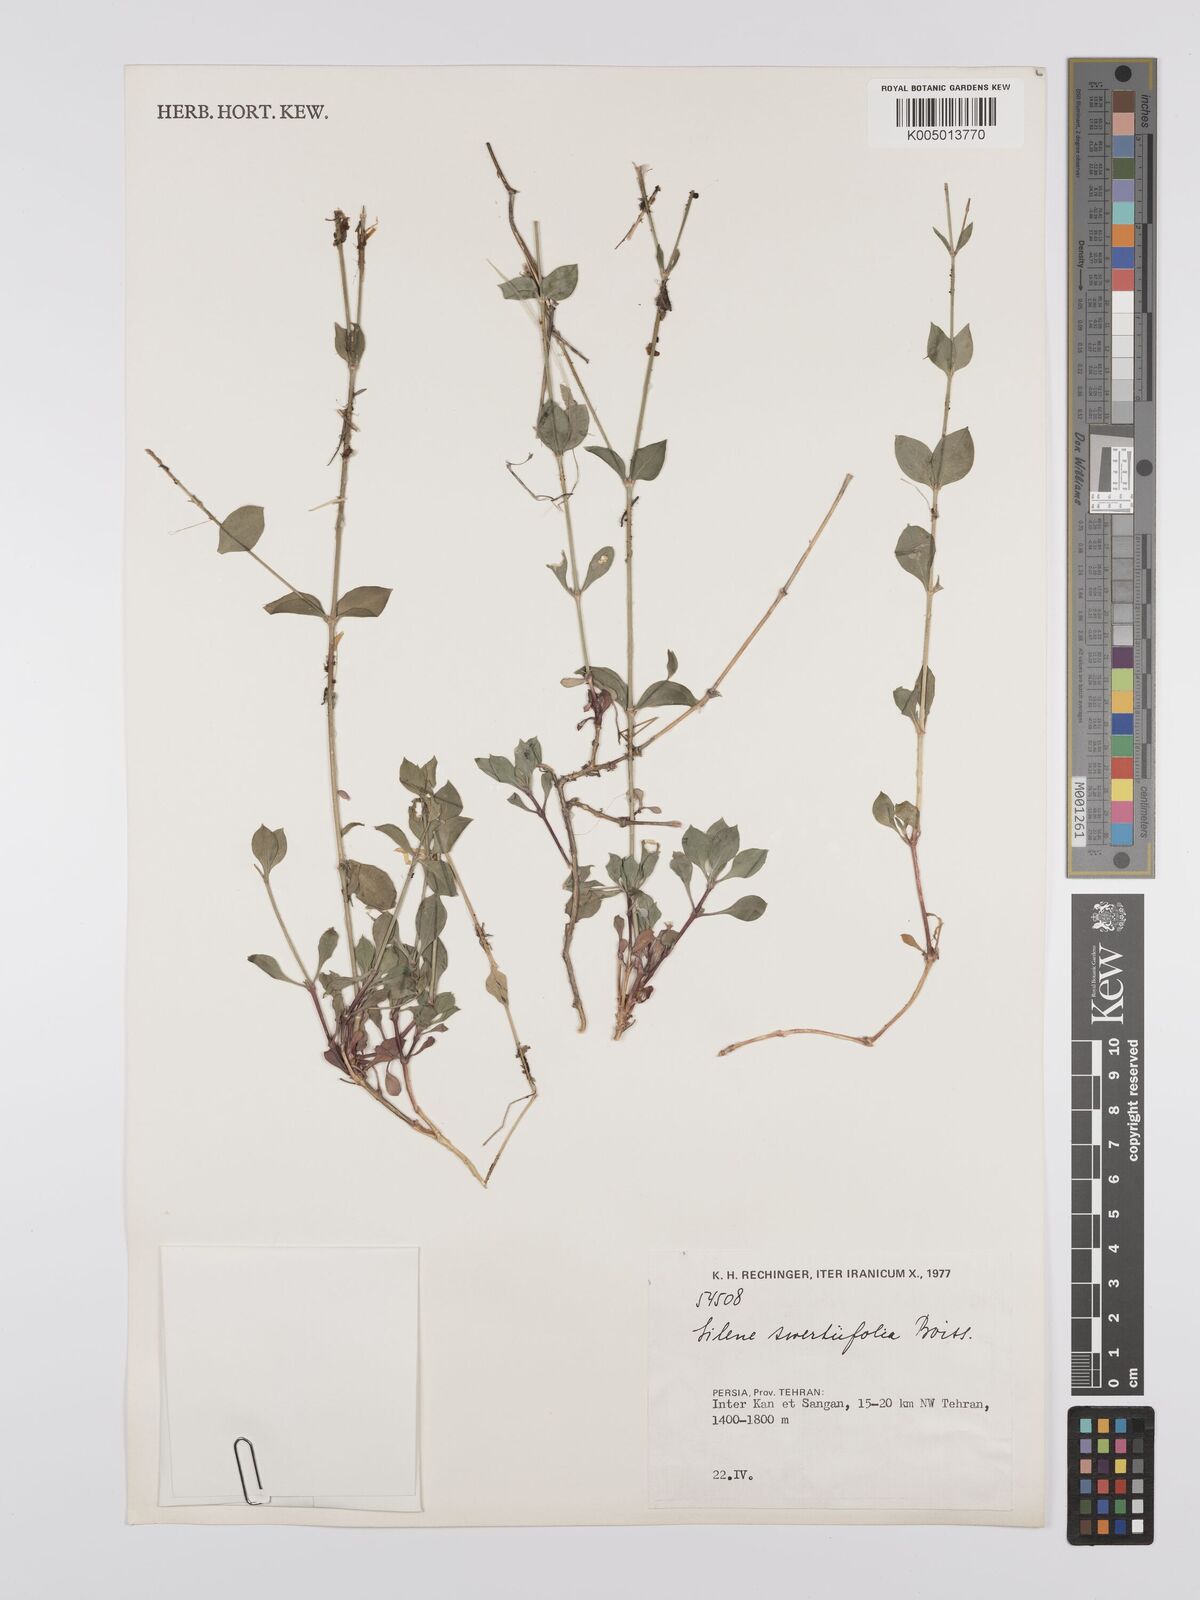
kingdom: Plantae
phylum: Tracheophyta
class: Magnoliopsida
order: Caryophyllales
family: Caryophyllaceae
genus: Silene
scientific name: Silene swertiifolia
